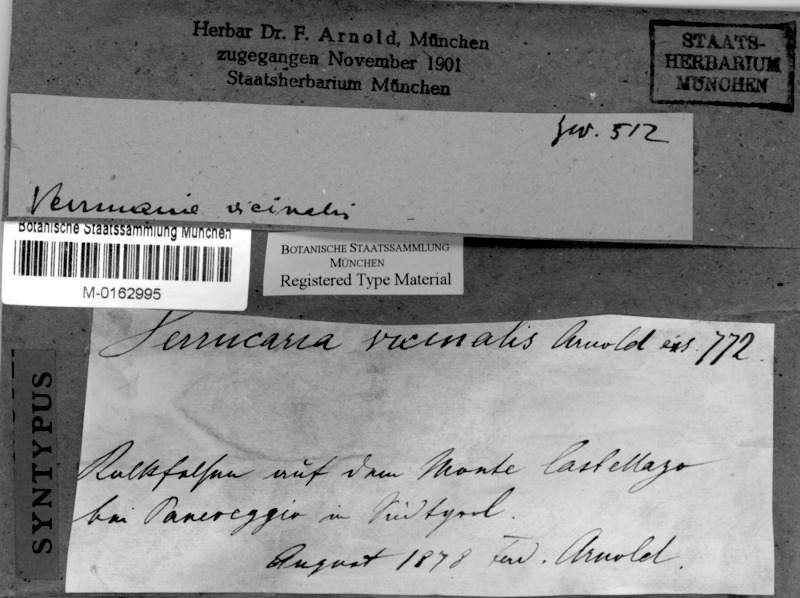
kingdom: Fungi
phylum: Ascomycota
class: Eurotiomycetes
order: Verrucariales
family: Verrucariaceae
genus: Verrucaria
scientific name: Verrucaria vicinalis
